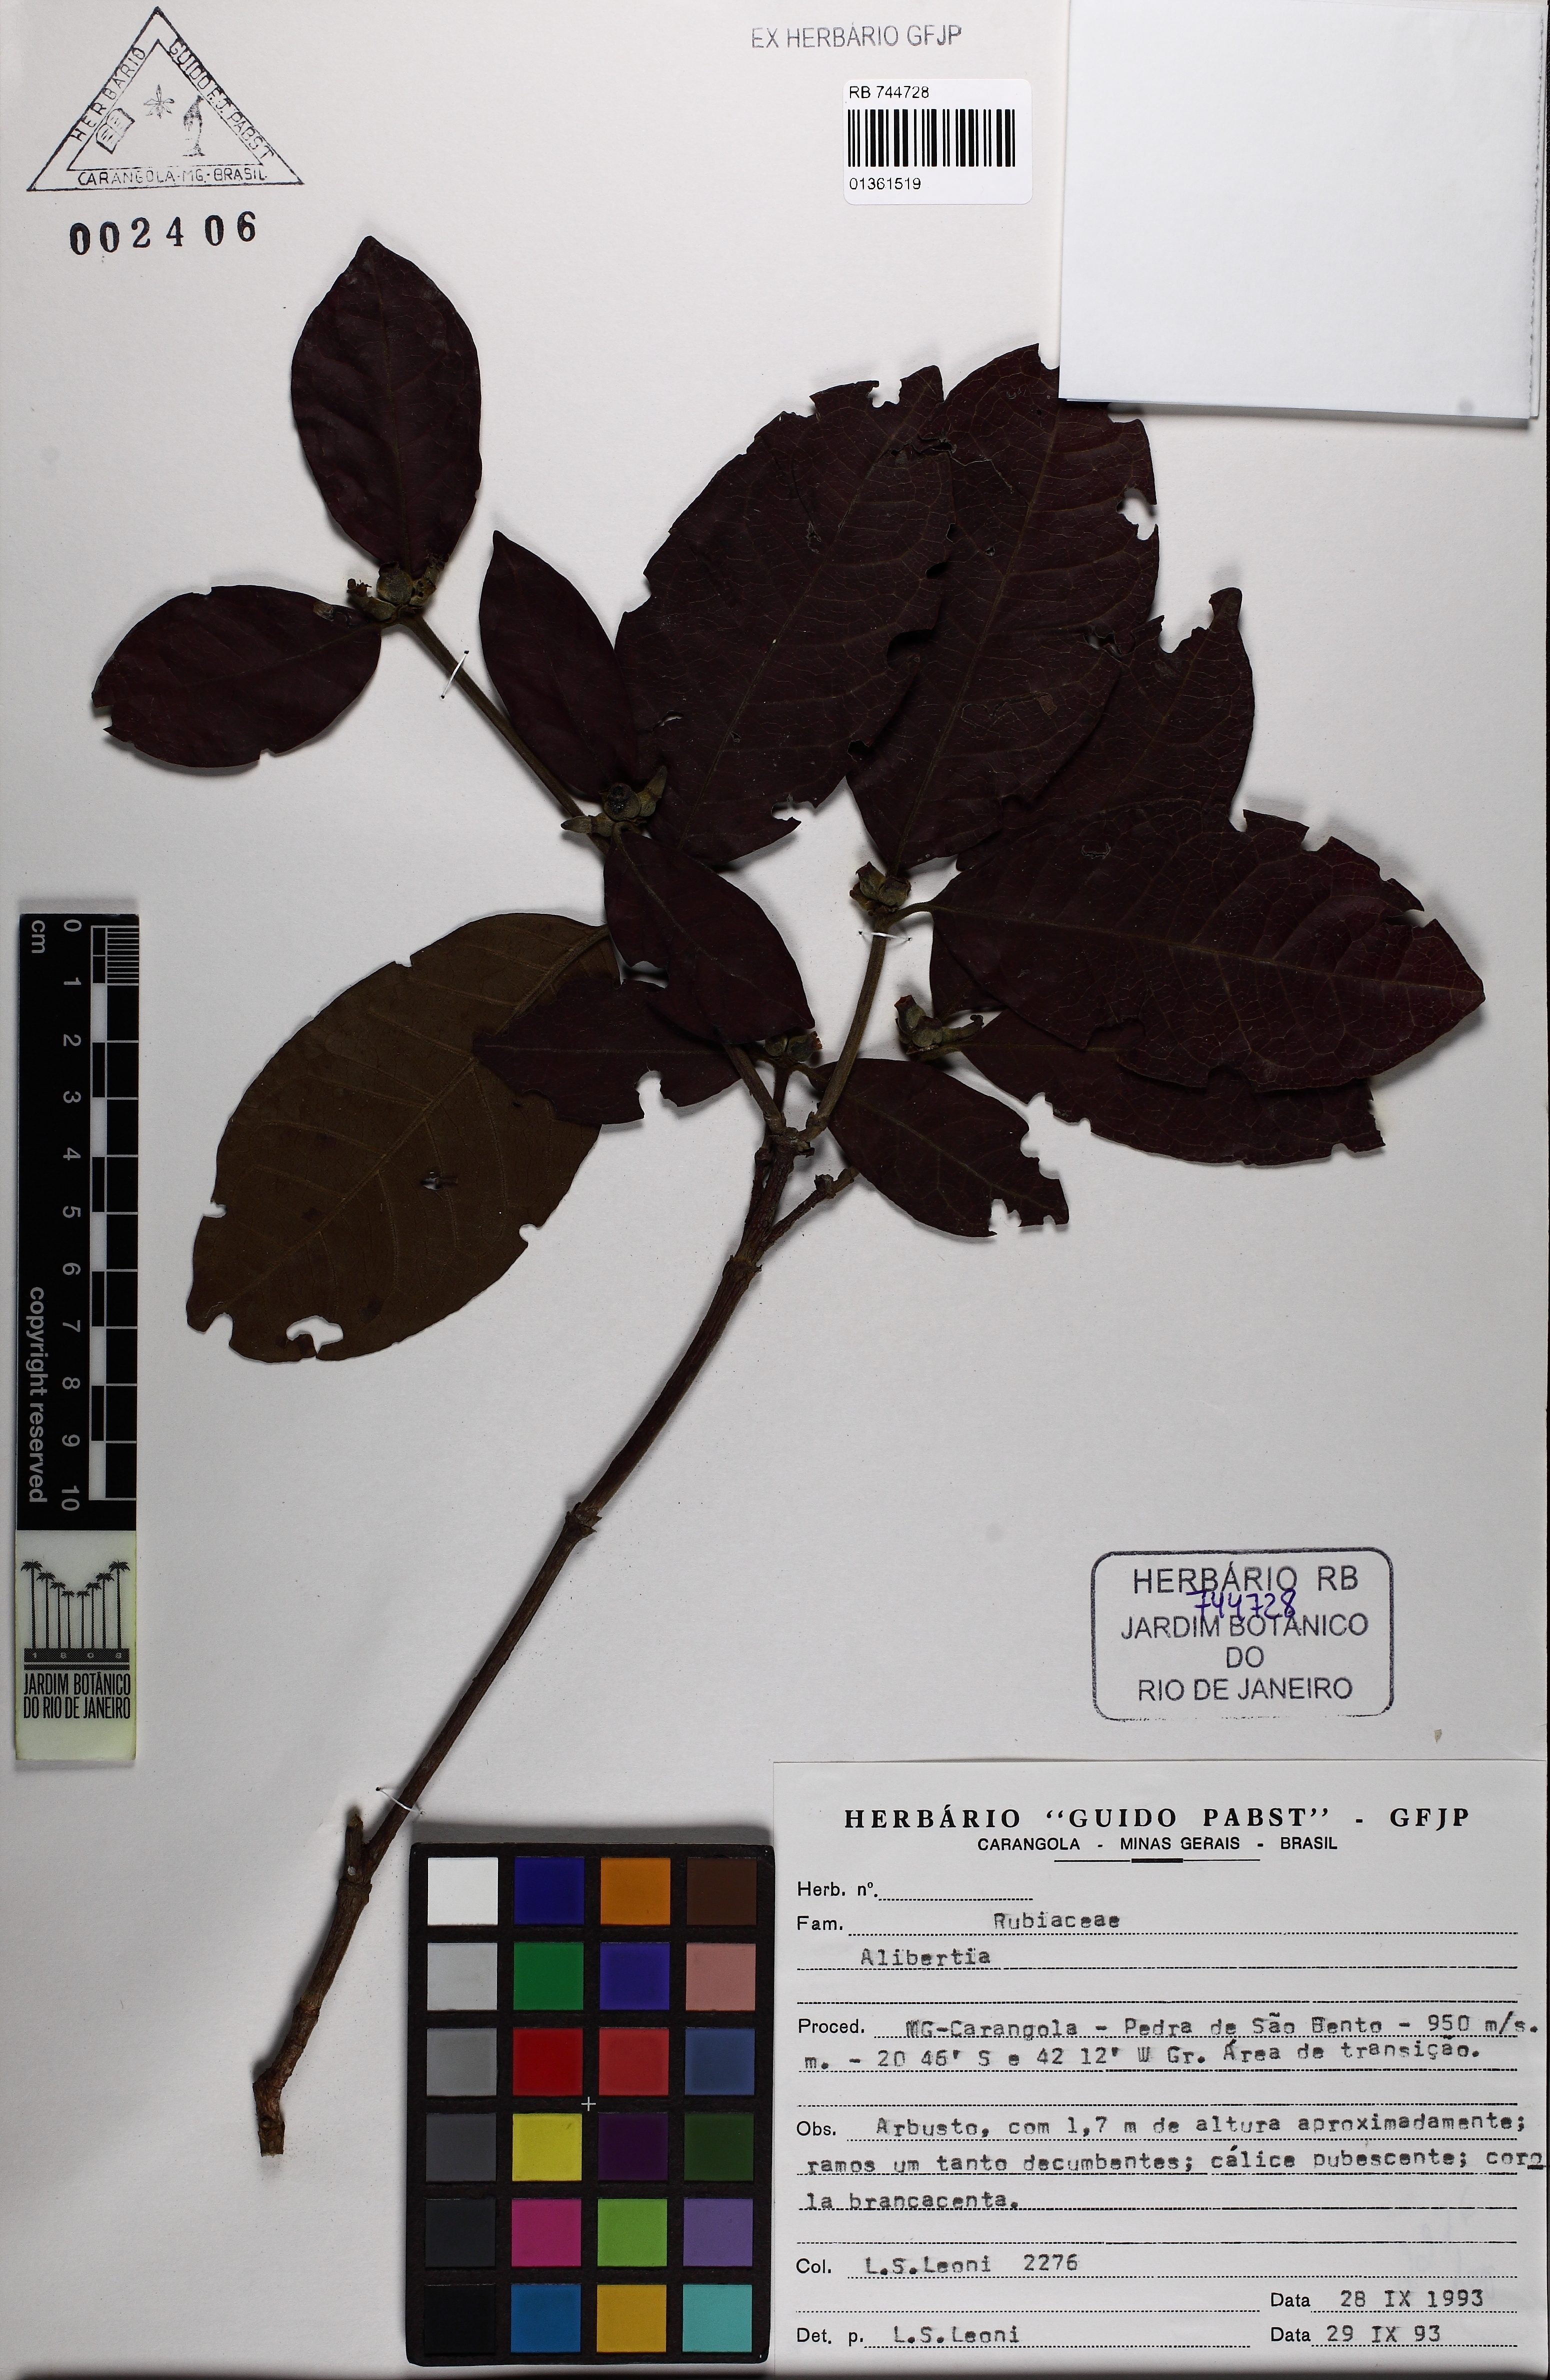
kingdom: Plantae
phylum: Tracheophyta
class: Magnoliopsida
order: Gentianales
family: Rubiaceae
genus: Cordiera
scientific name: Cordiera elliptica
